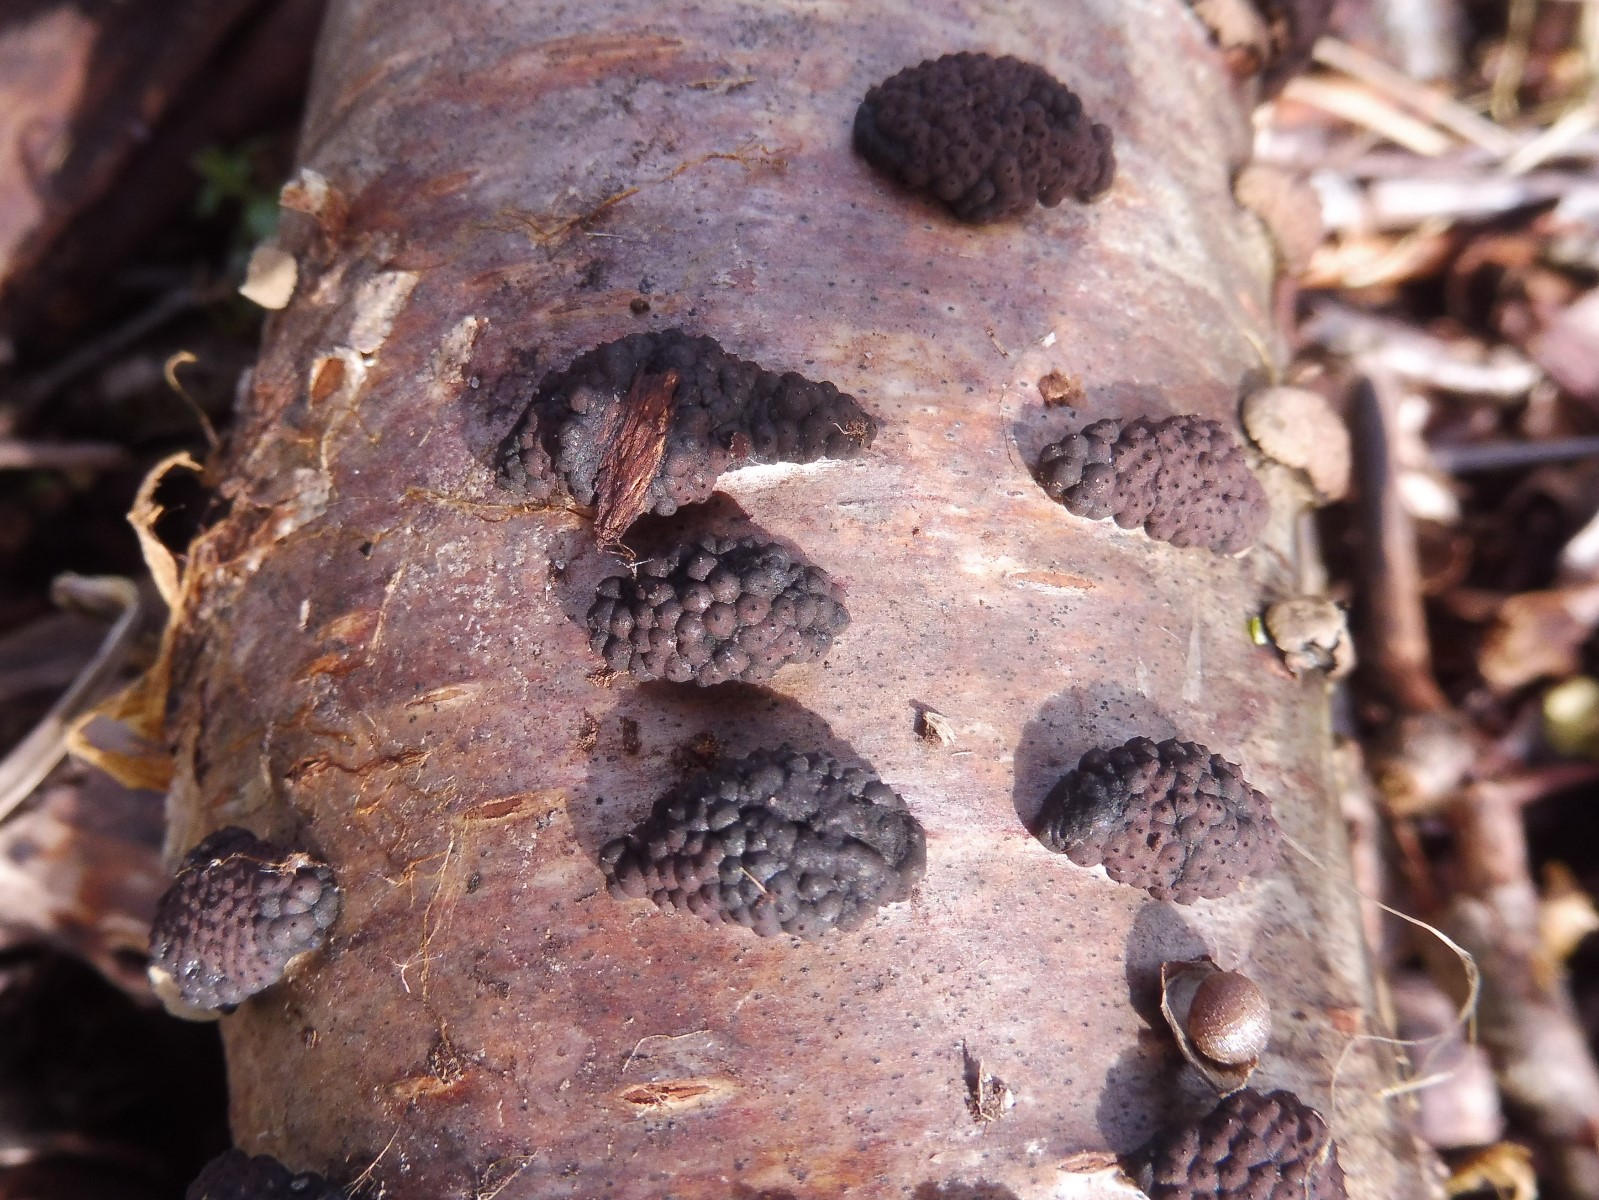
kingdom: Fungi
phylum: Ascomycota
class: Sordariomycetes
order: Xylariales
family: Hypoxylaceae
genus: Jackrogersella
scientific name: Jackrogersella multiformis
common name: foranderlig kulbær
